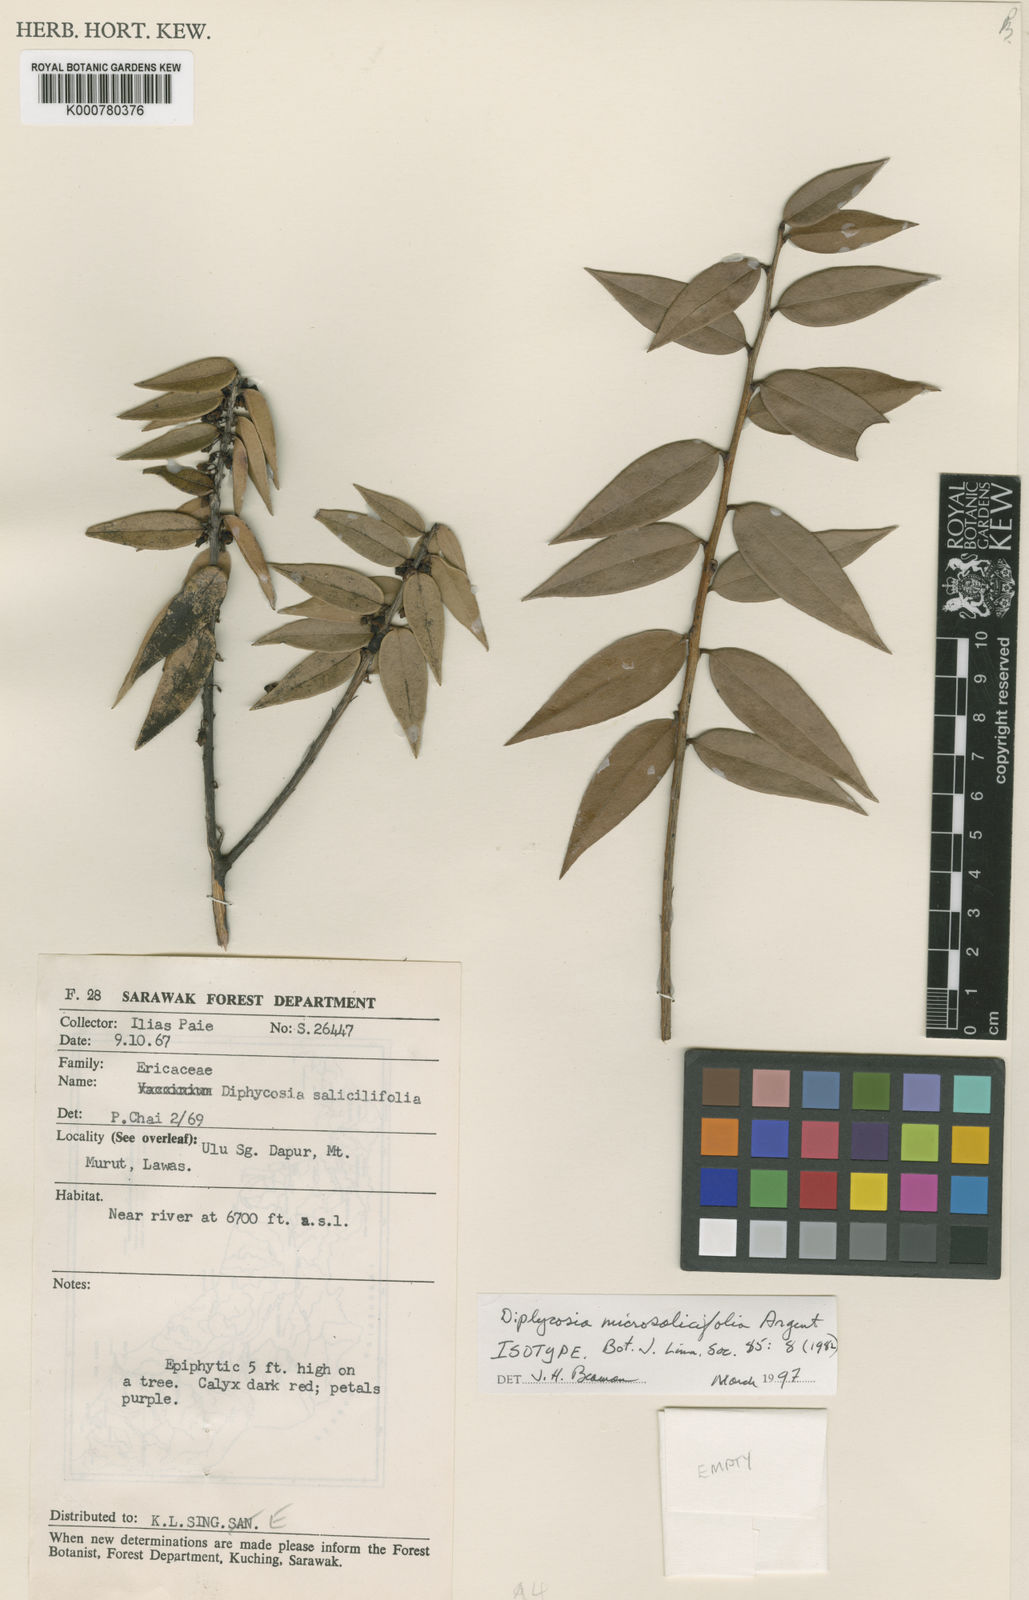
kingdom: Plantae
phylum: Tracheophyta
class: Magnoliopsida
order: Ericales
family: Ericaceae
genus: Gaultheria
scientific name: Gaultheria microsalicifolia
